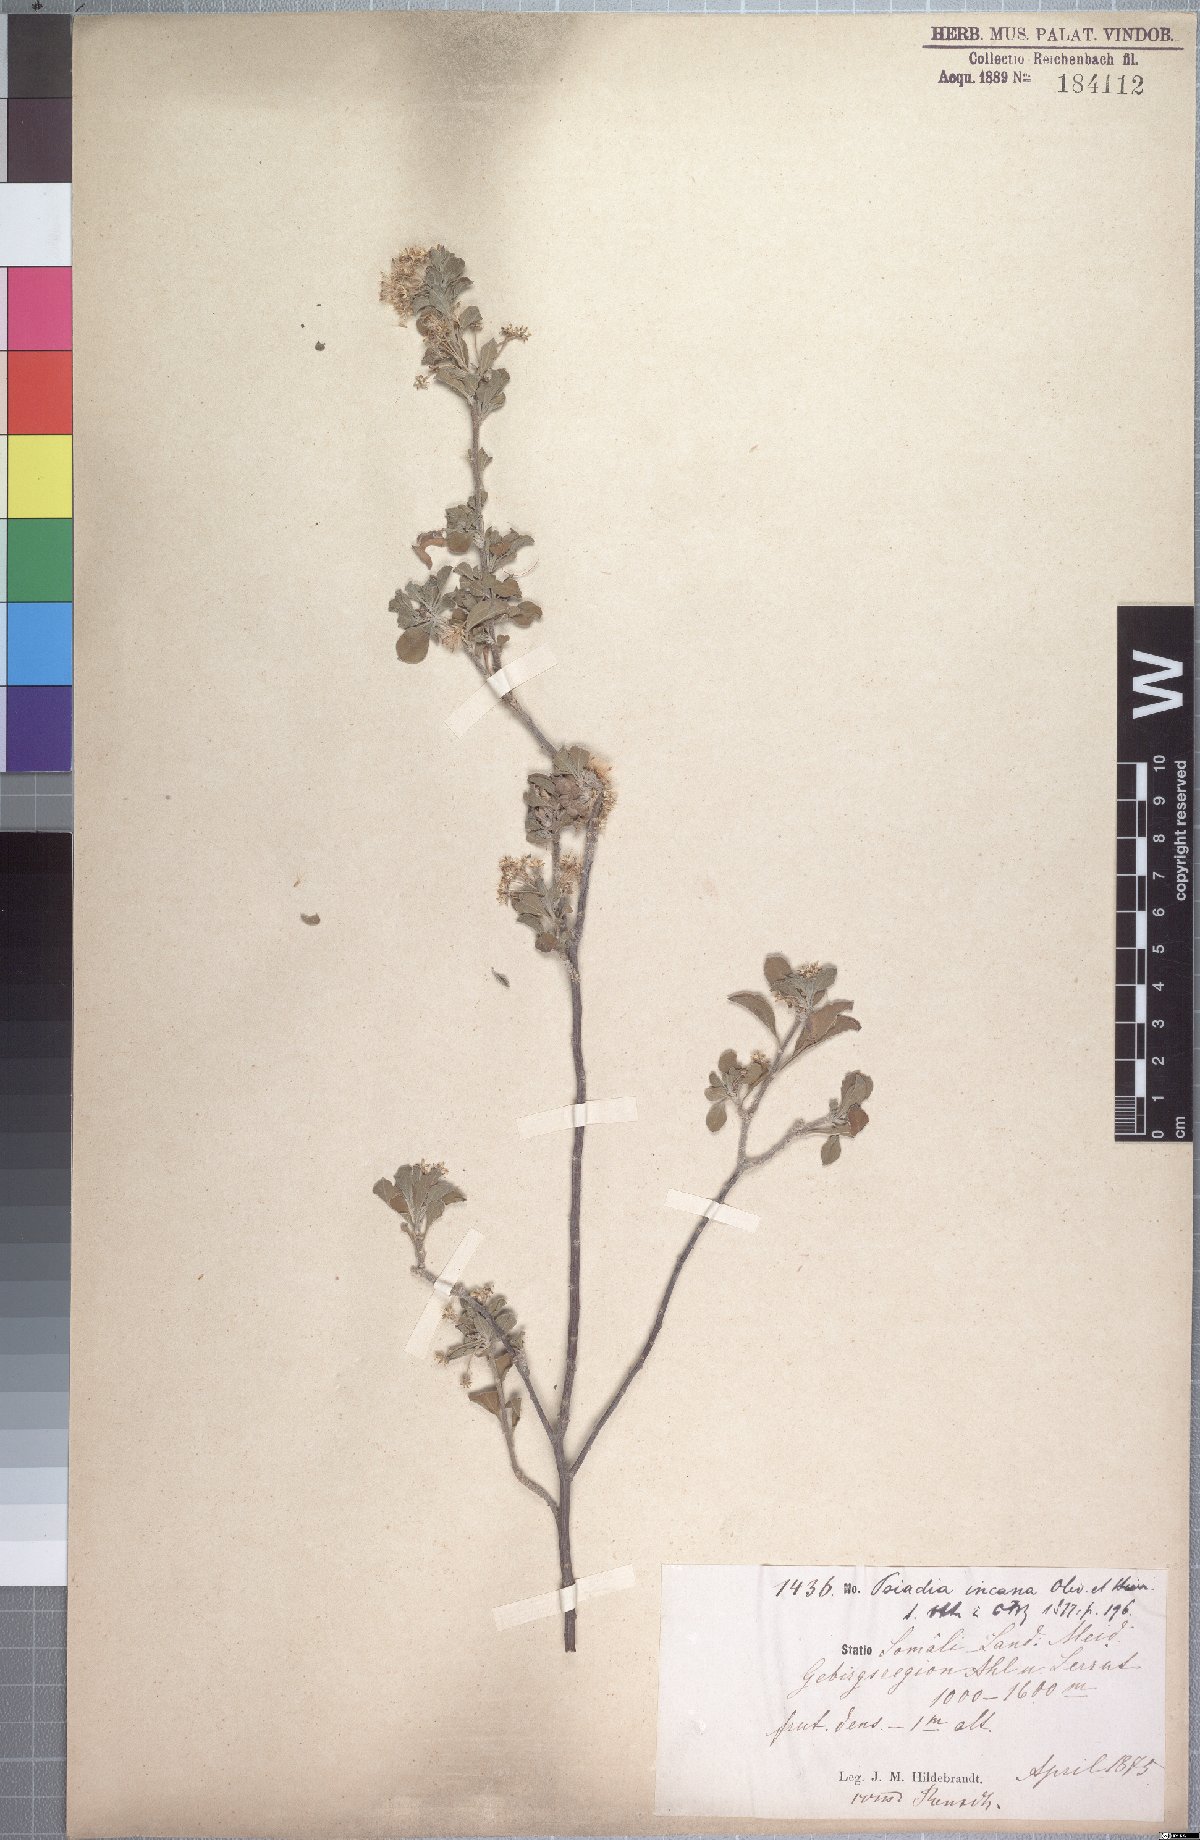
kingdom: Plantae
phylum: Tracheophyta
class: Magnoliopsida
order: Asterales
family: Asteraceae
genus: Psiadia
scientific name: Psiadia incana
